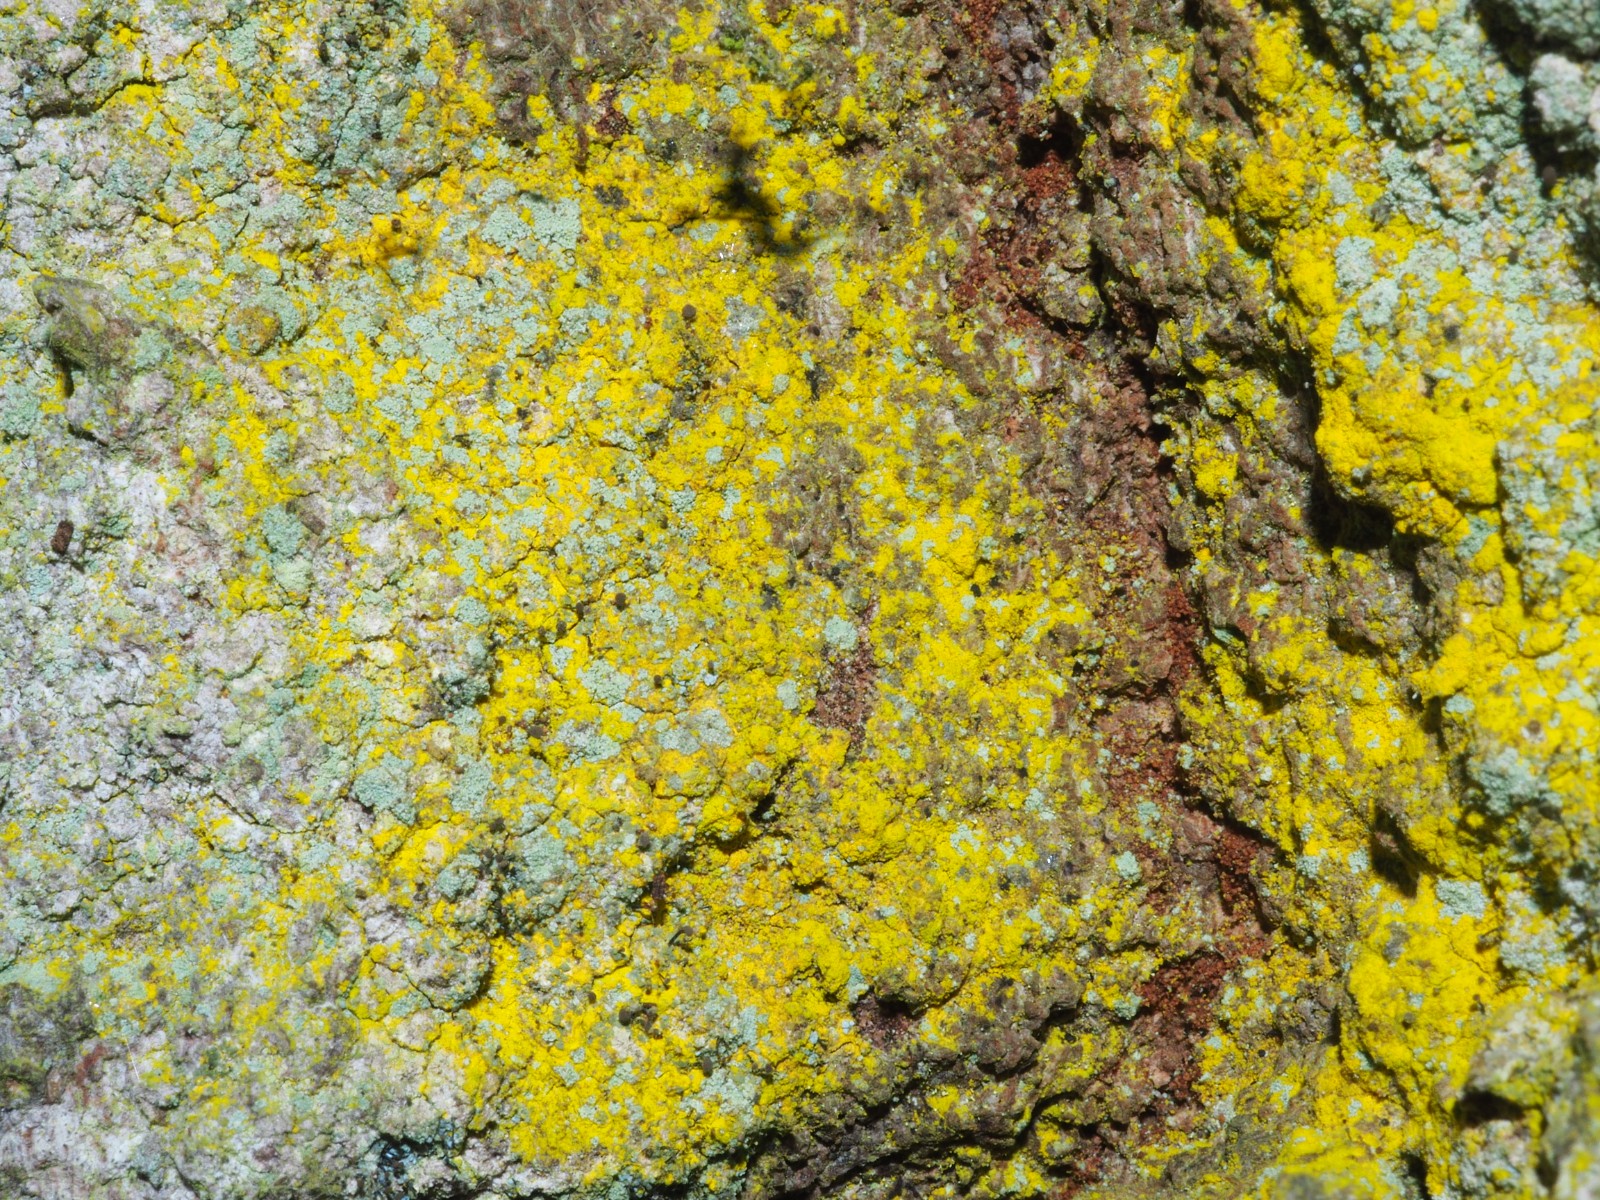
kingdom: Fungi
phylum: Ascomycota
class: Arthoniomycetes
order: Arthoniales
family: Chrysotrichaceae
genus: Chrysothrix
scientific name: Chrysothrix candelaris
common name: gul støvlav
